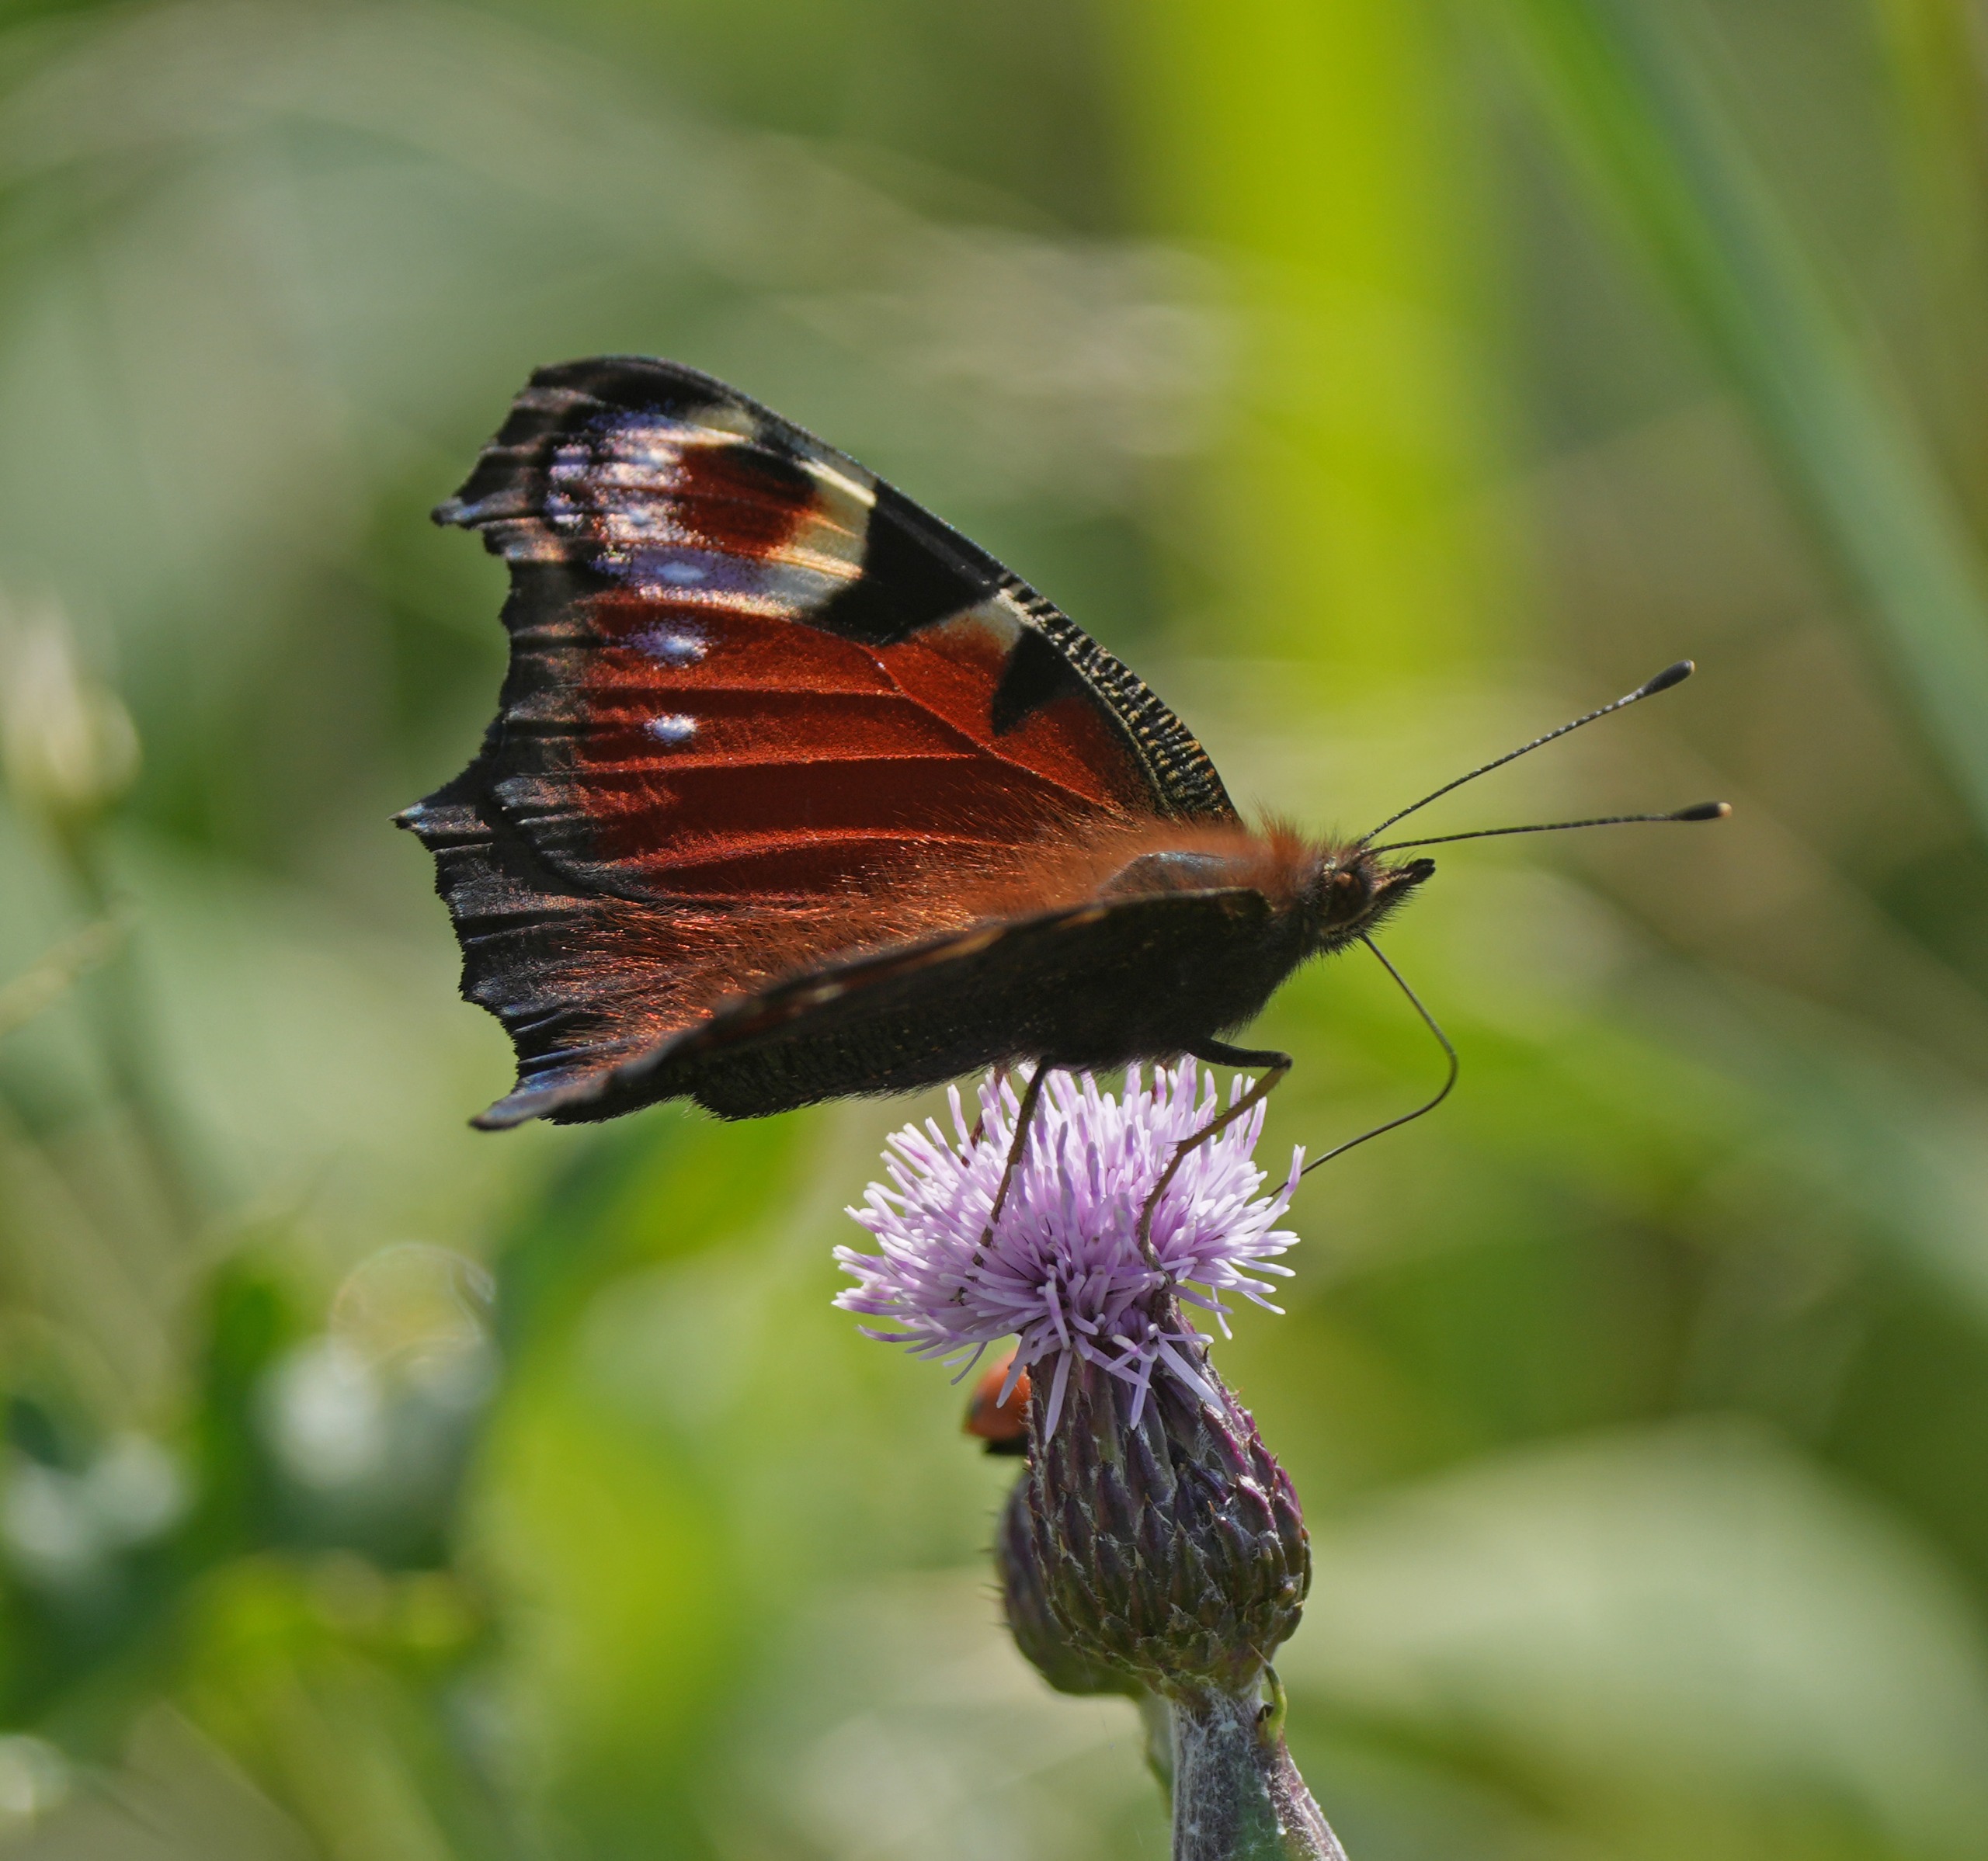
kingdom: Animalia
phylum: Arthropoda
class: Insecta
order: Lepidoptera
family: Nymphalidae
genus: Aglais
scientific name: Aglais io
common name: Dagpåfugleøje
